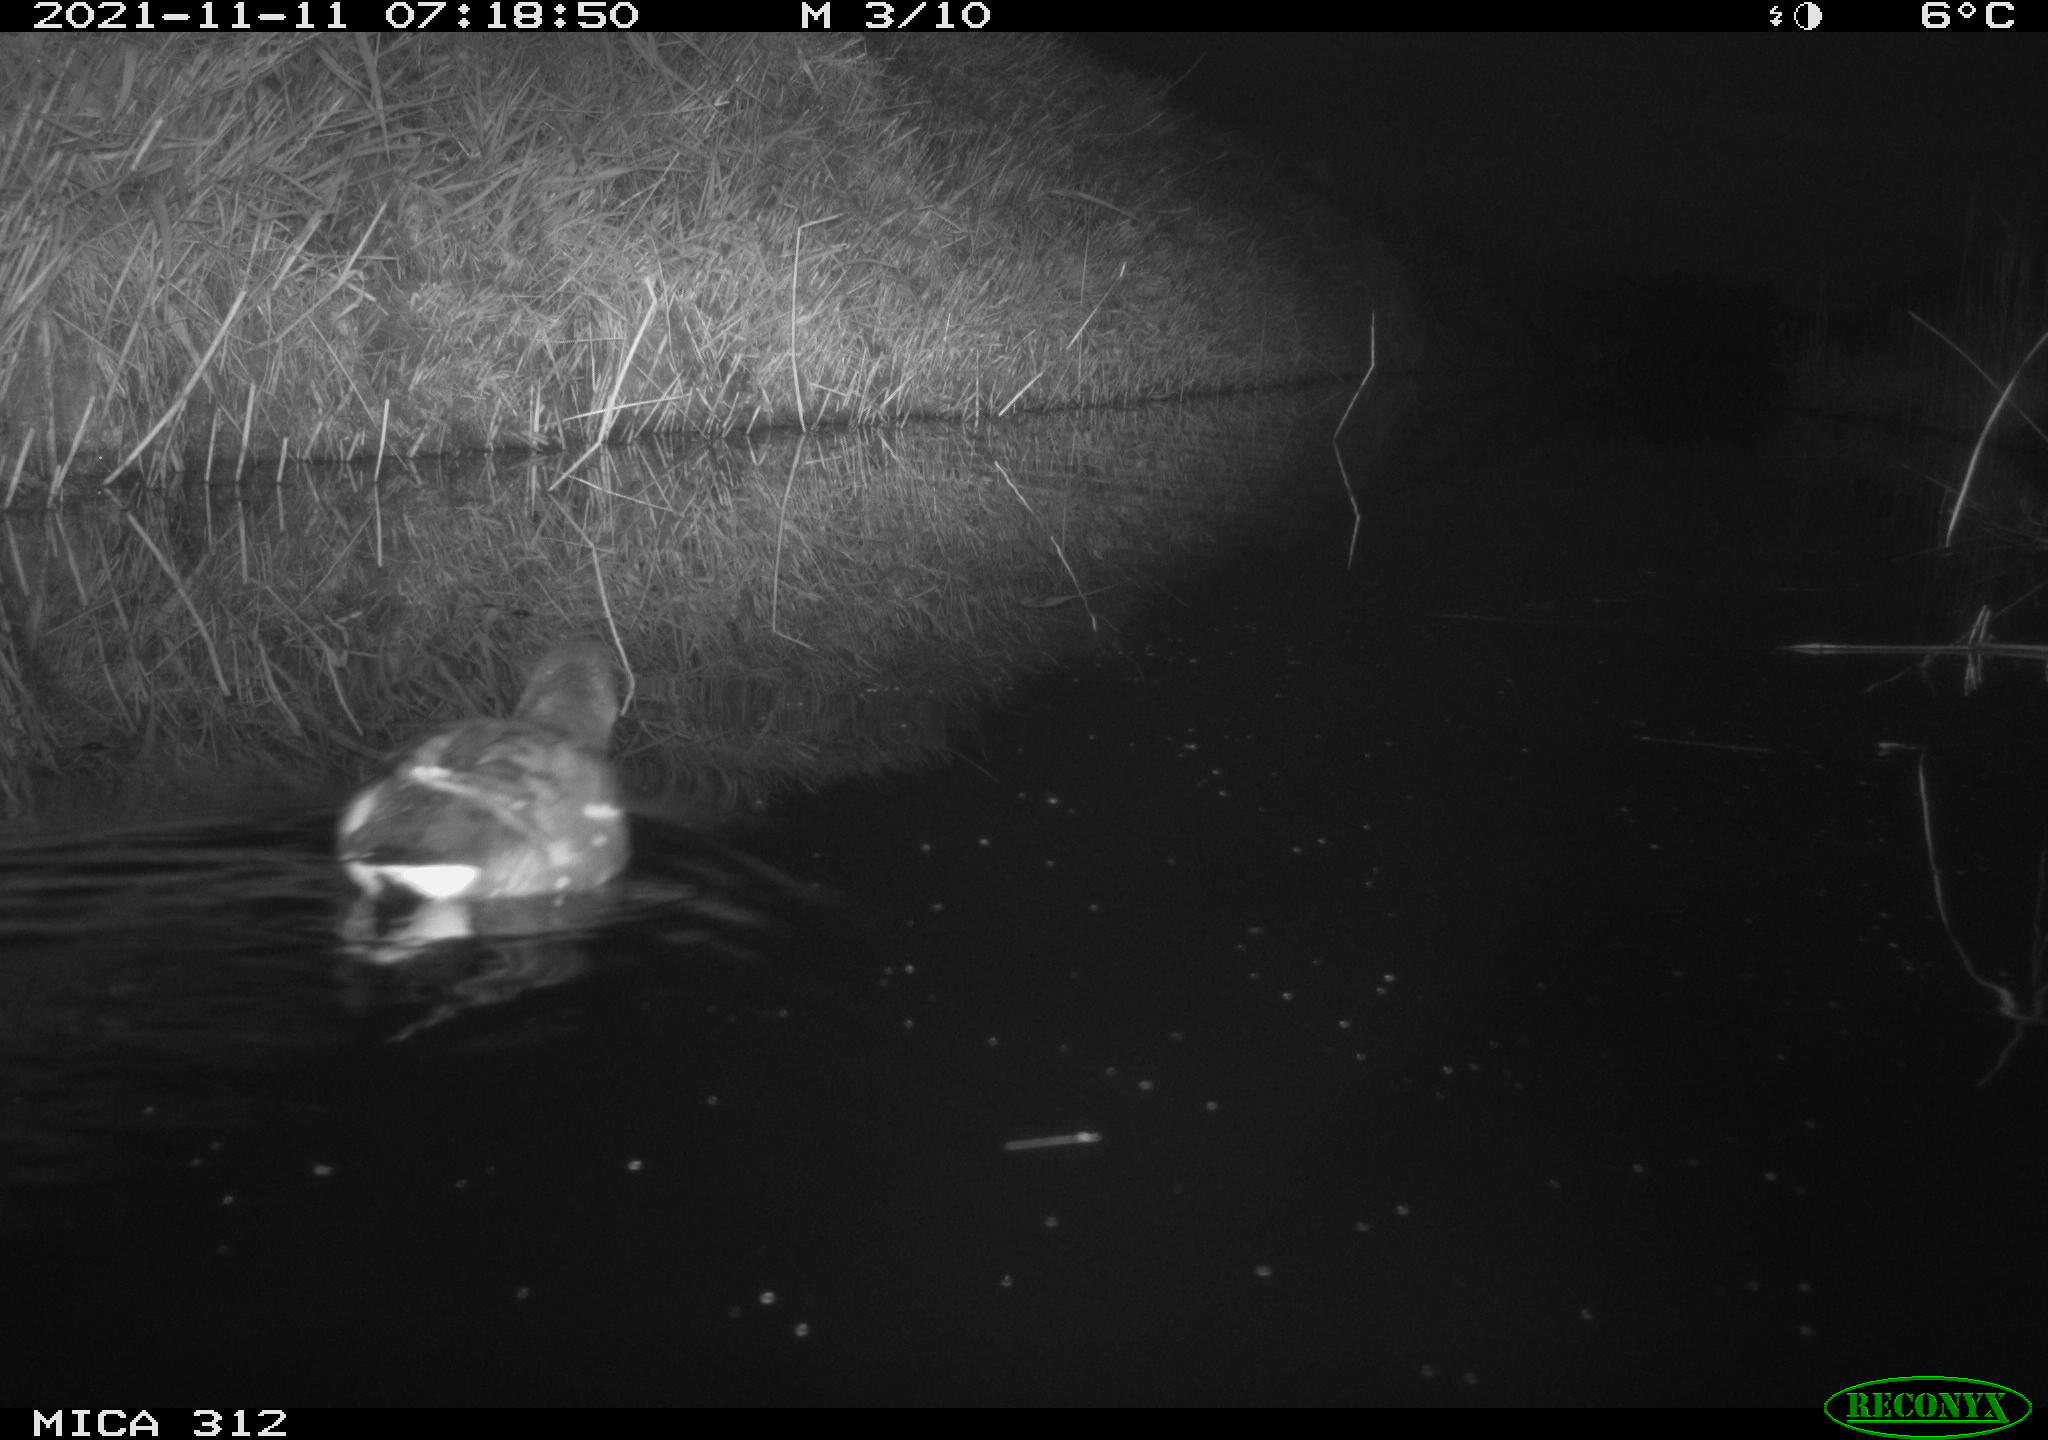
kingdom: Animalia
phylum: Chordata
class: Aves
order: Gruiformes
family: Rallidae
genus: Gallinula
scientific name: Gallinula chloropus
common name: Common moorhen
